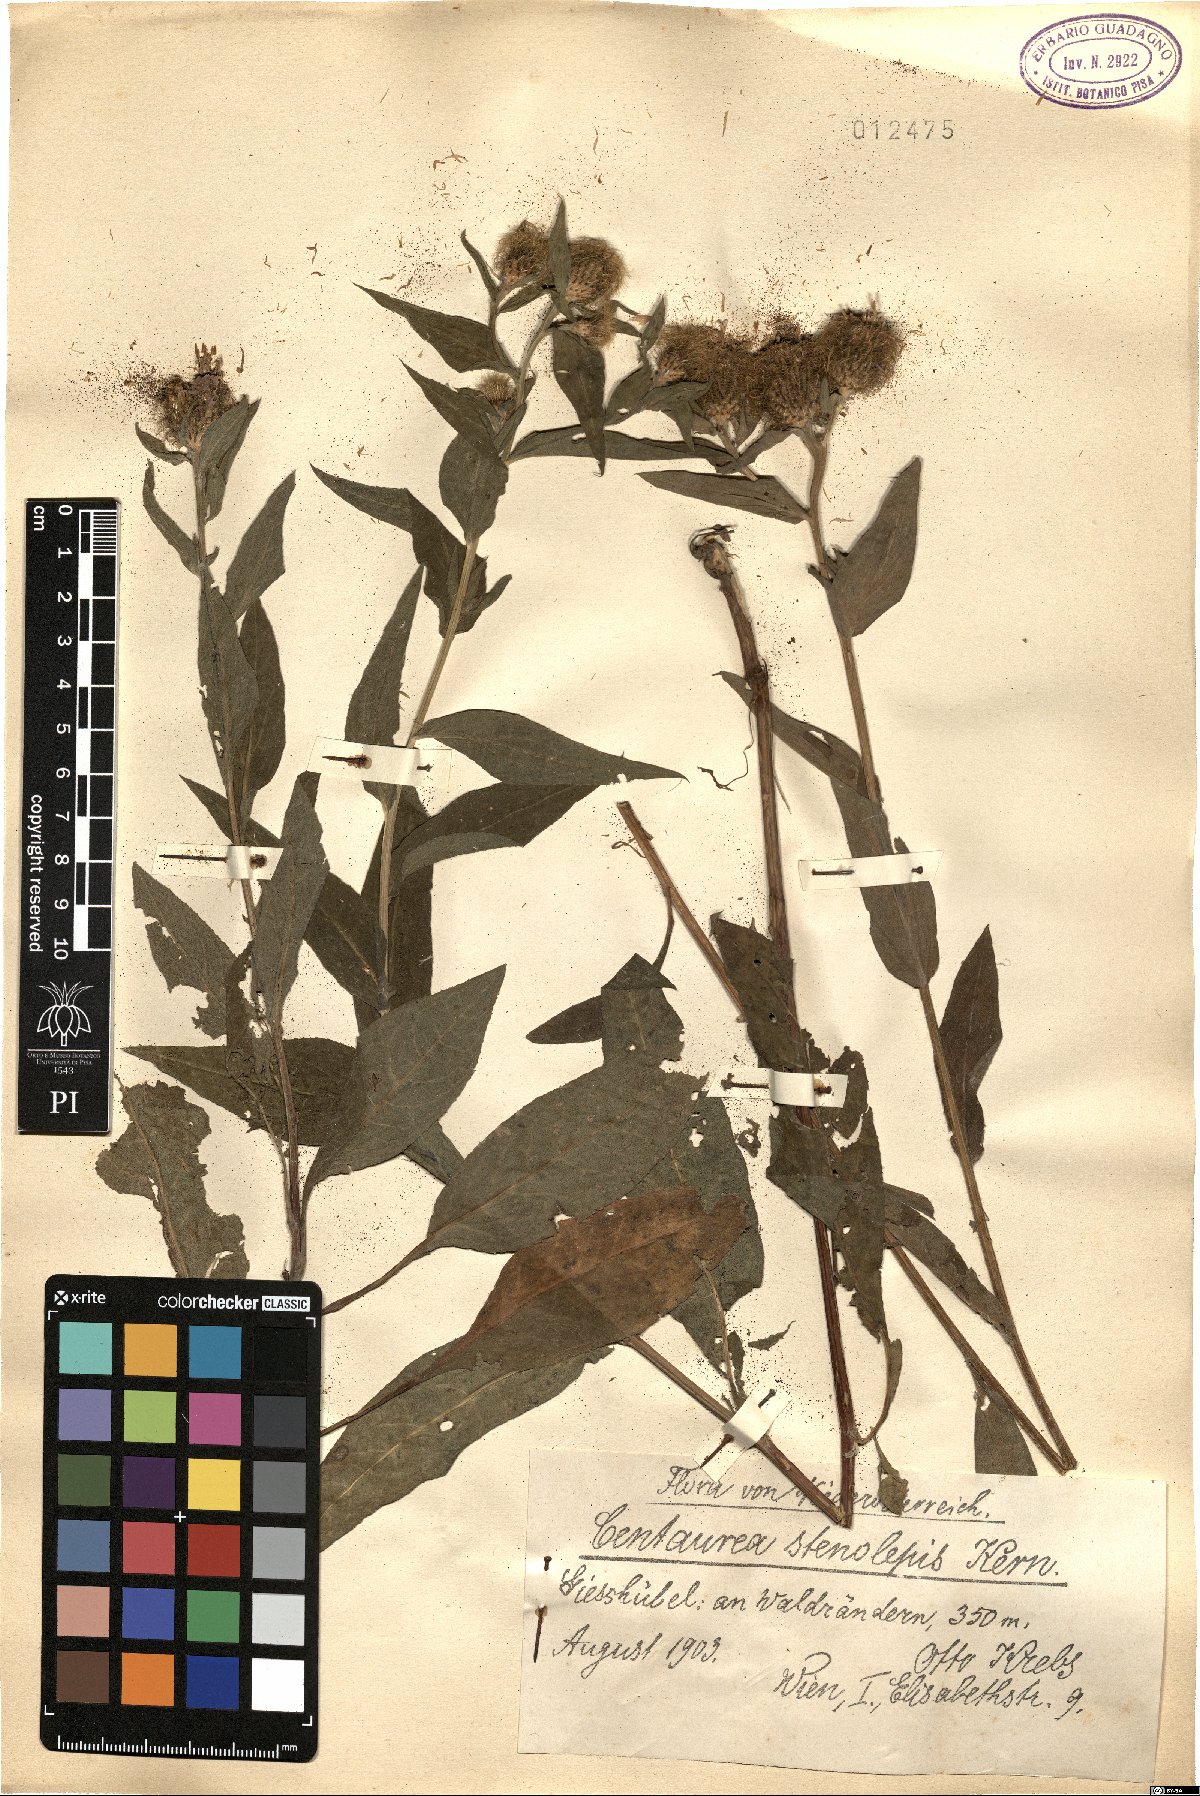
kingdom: Plantae
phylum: Tracheophyta
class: Magnoliopsida
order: Asterales
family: Asteraceae
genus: Centaurea
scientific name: Centaurea stenolepis
